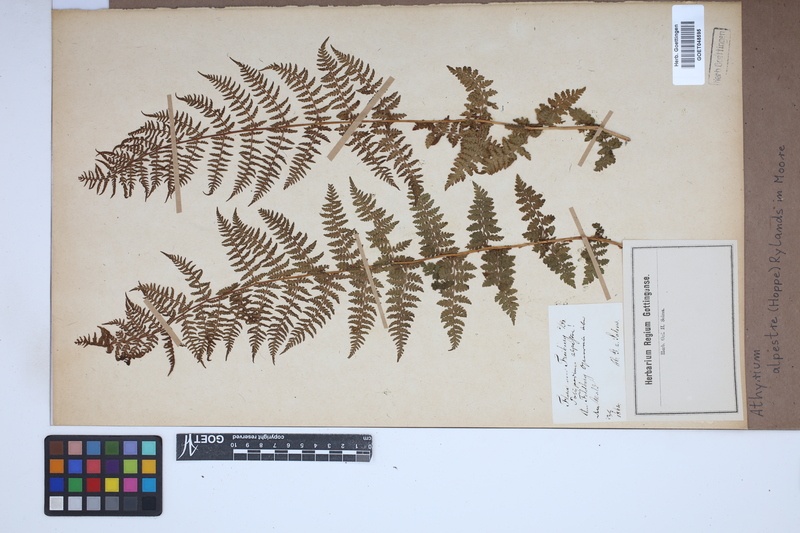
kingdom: Plantae
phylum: Tracheophyta
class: Polypodiopsida
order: Polypodiales
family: Athyriaceae
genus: Pseudathyrium
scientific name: Pseudathyrium alpestre
